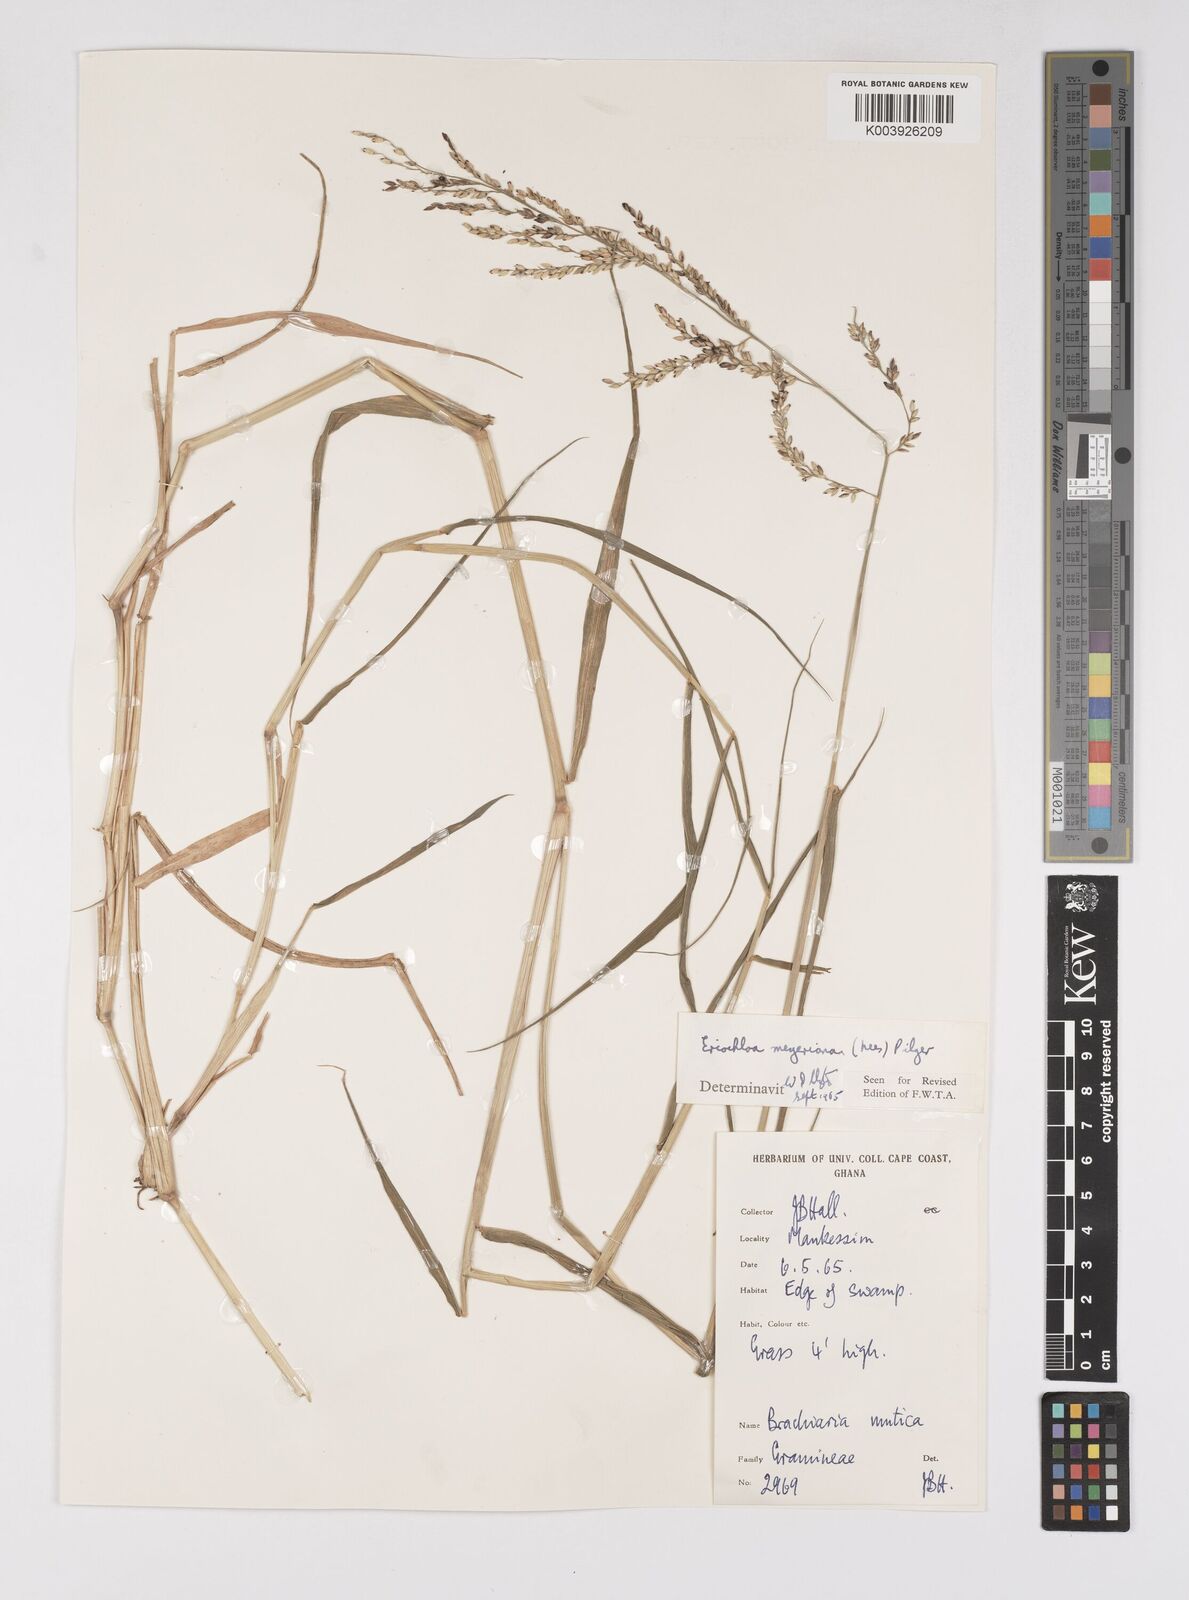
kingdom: Plantae
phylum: Tracheophyta
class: Liliopsida
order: Poales
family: Poaceae
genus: Eriochloa
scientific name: Eriochloa meyeriana
